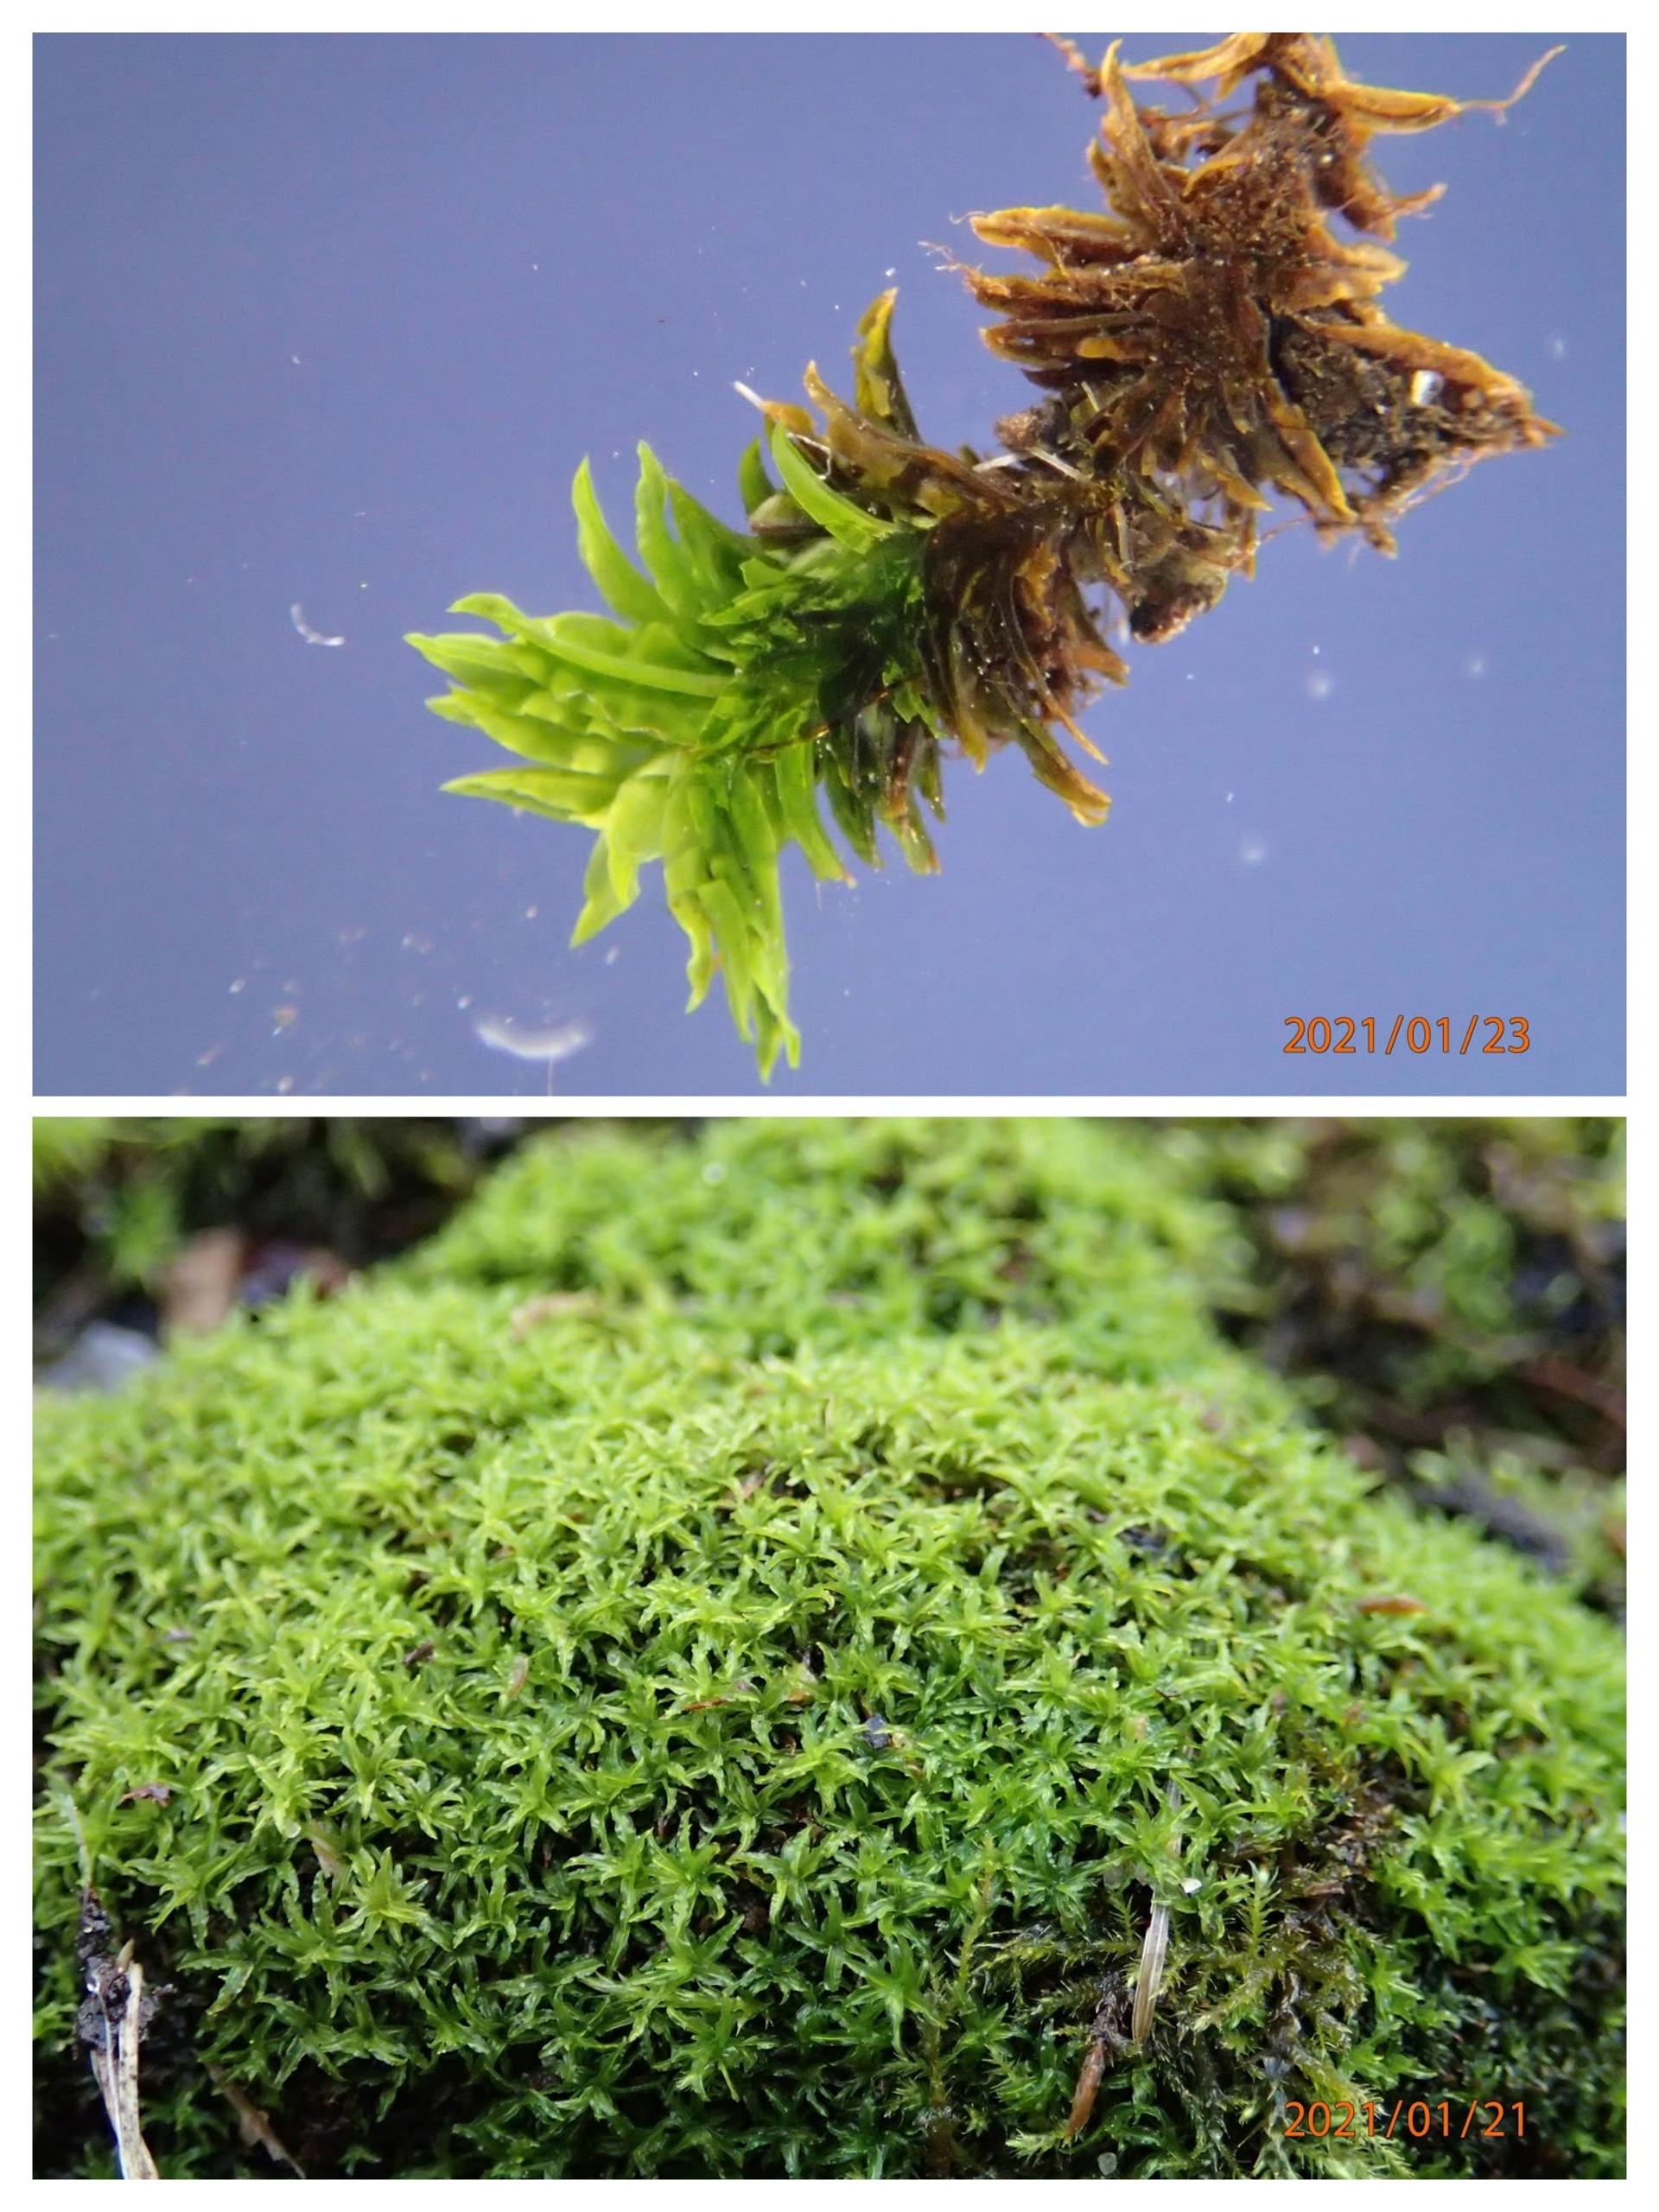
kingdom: Plantae
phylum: Bryophyta
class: Bryopsida
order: Pottiales
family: Pottiaceae
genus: Streblotrichum
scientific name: Streblotrichum commutatum
